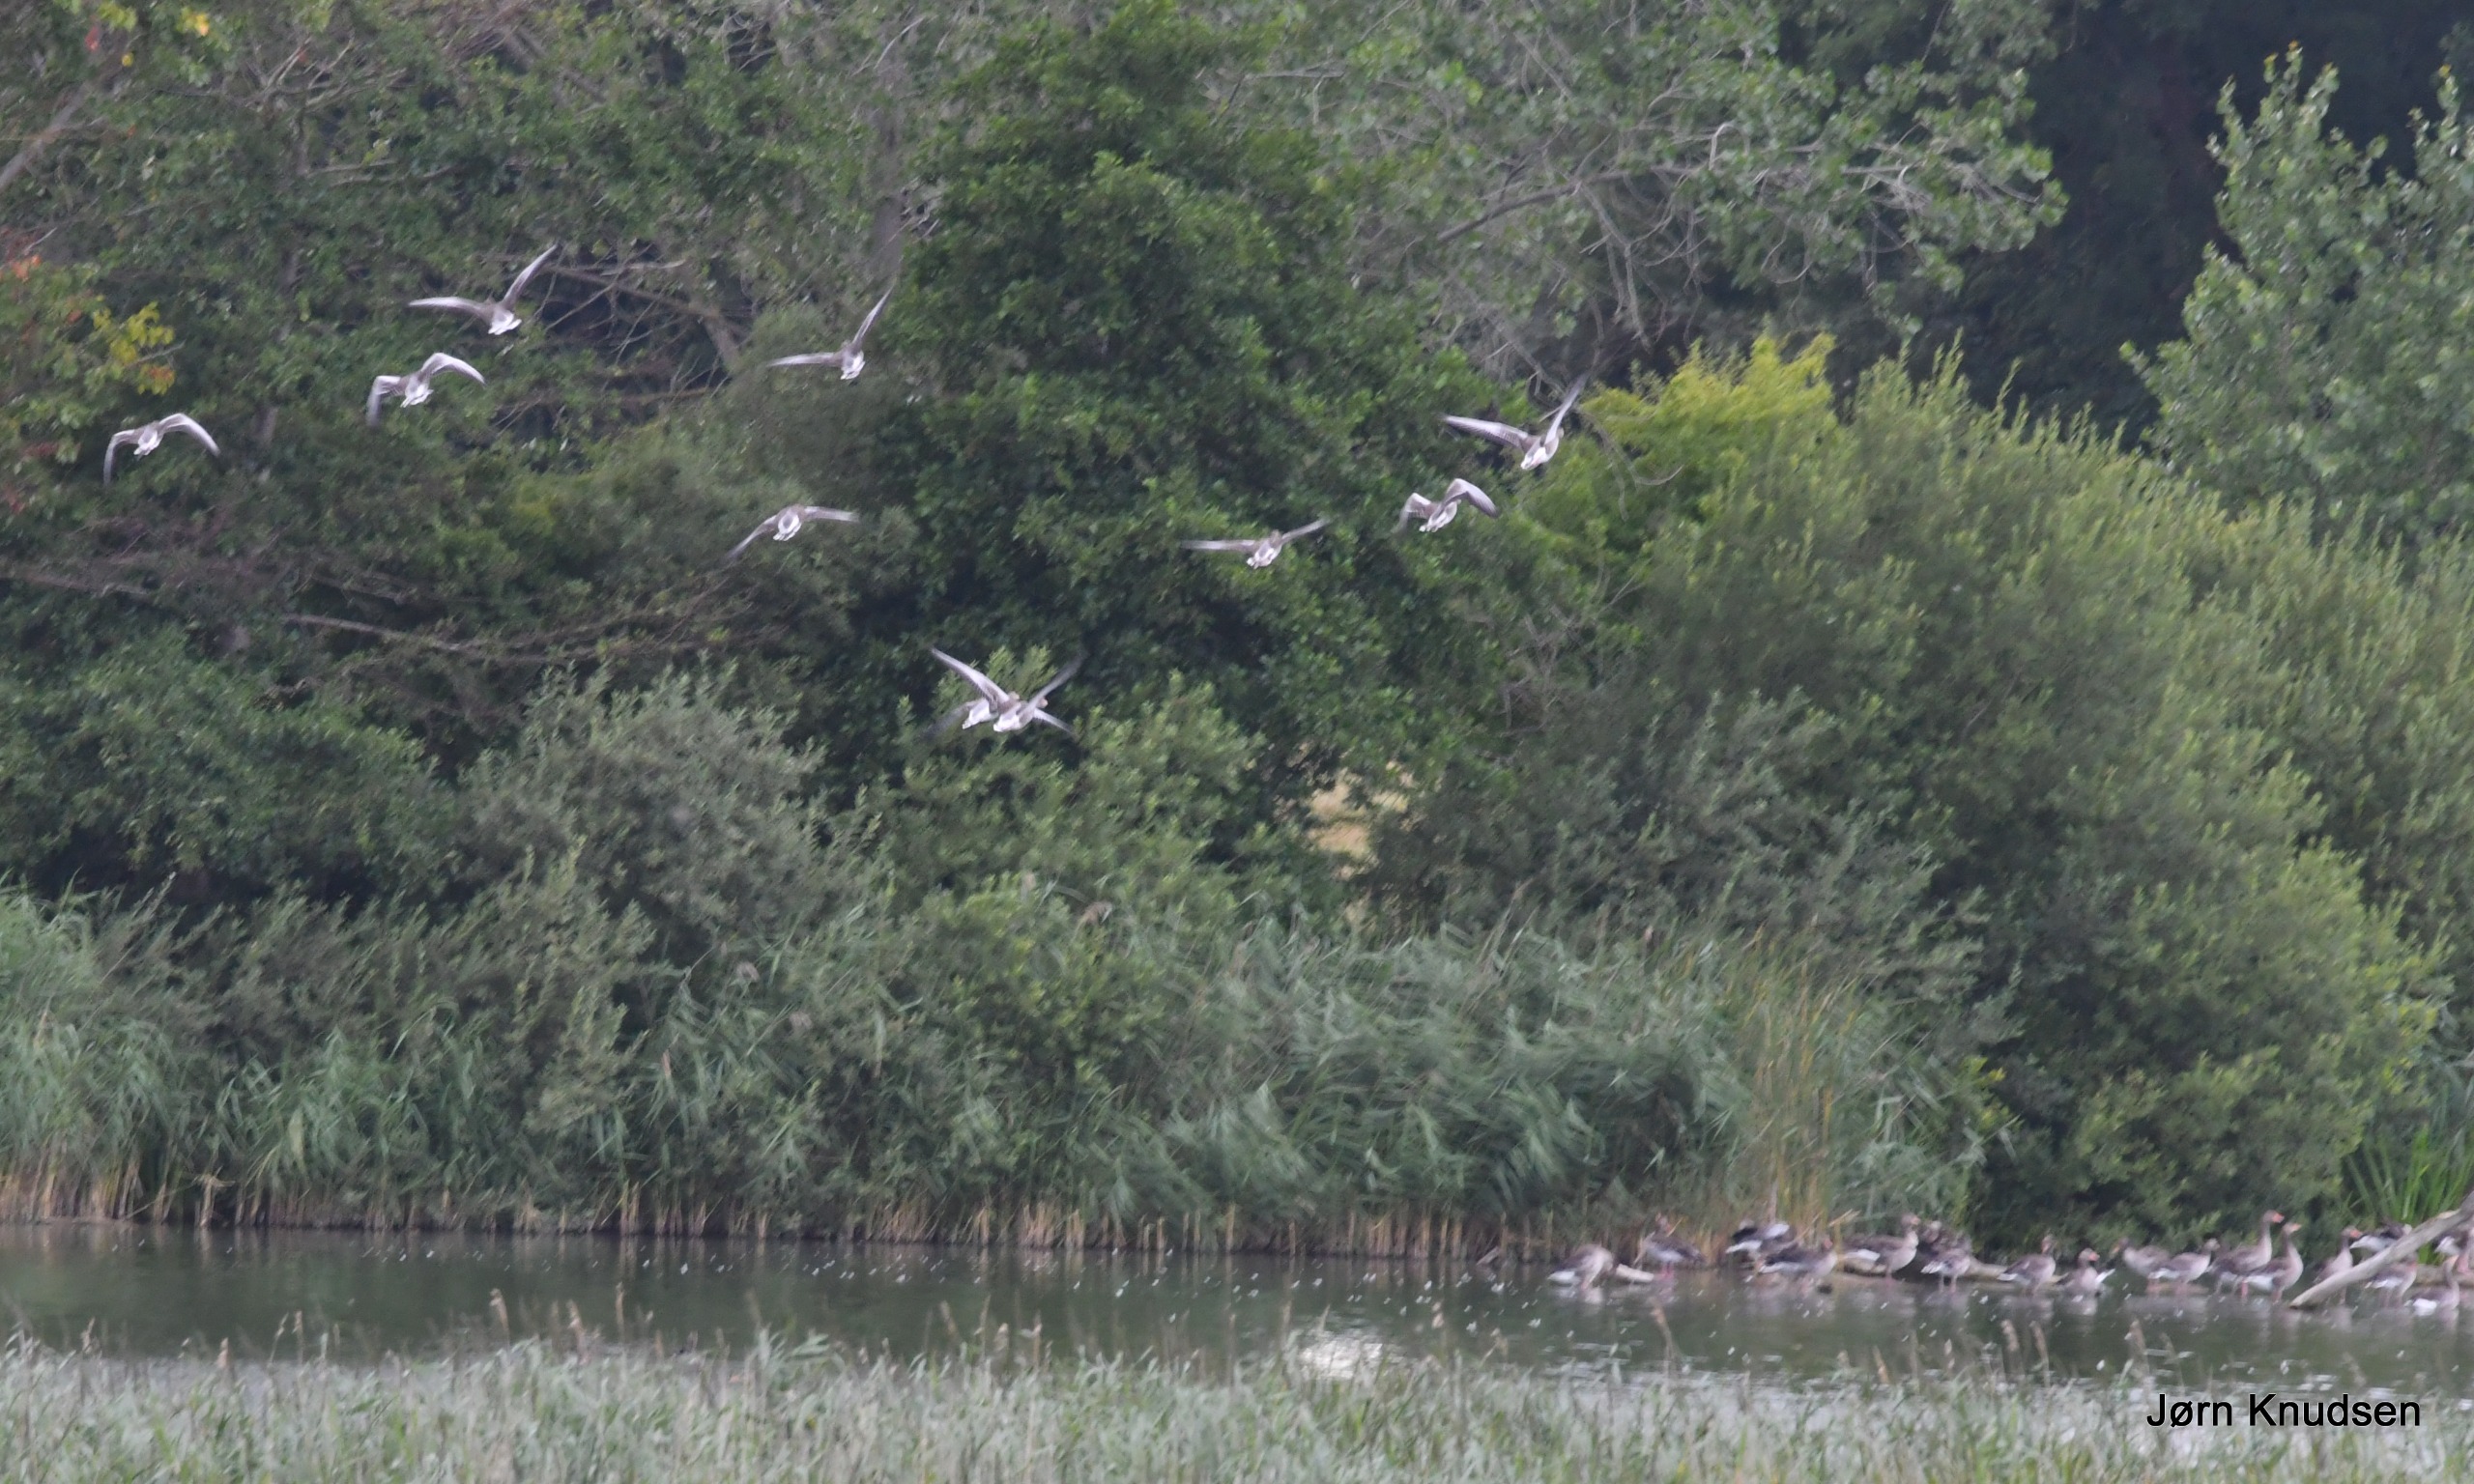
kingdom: Animalia
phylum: Chordata
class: Aves
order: Anseriformes
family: Anatidae
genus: Anser
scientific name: Anser anser
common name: Grågås
